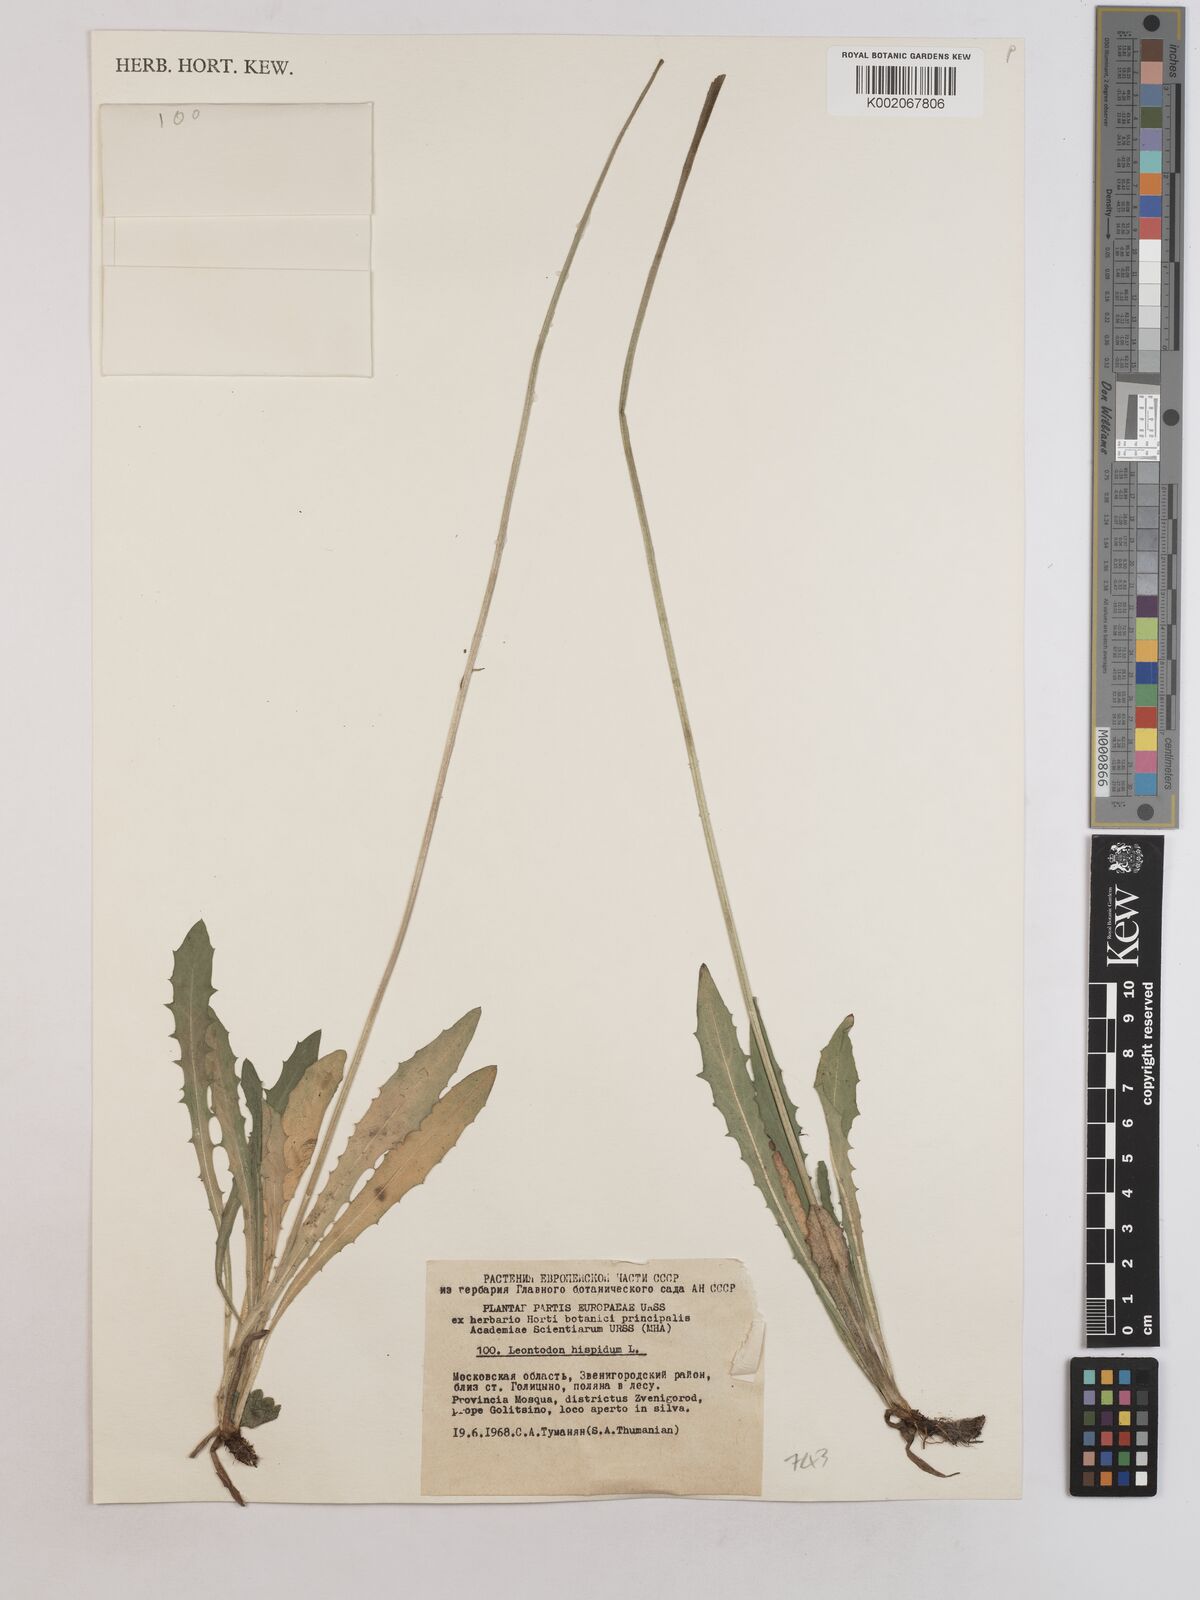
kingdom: Plantae
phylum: Tracheophyta
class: Magnoliopsida
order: Asterales
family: Asteraceae
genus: Leontodon
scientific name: Leontodon hispidus
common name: Rough hawkbit
